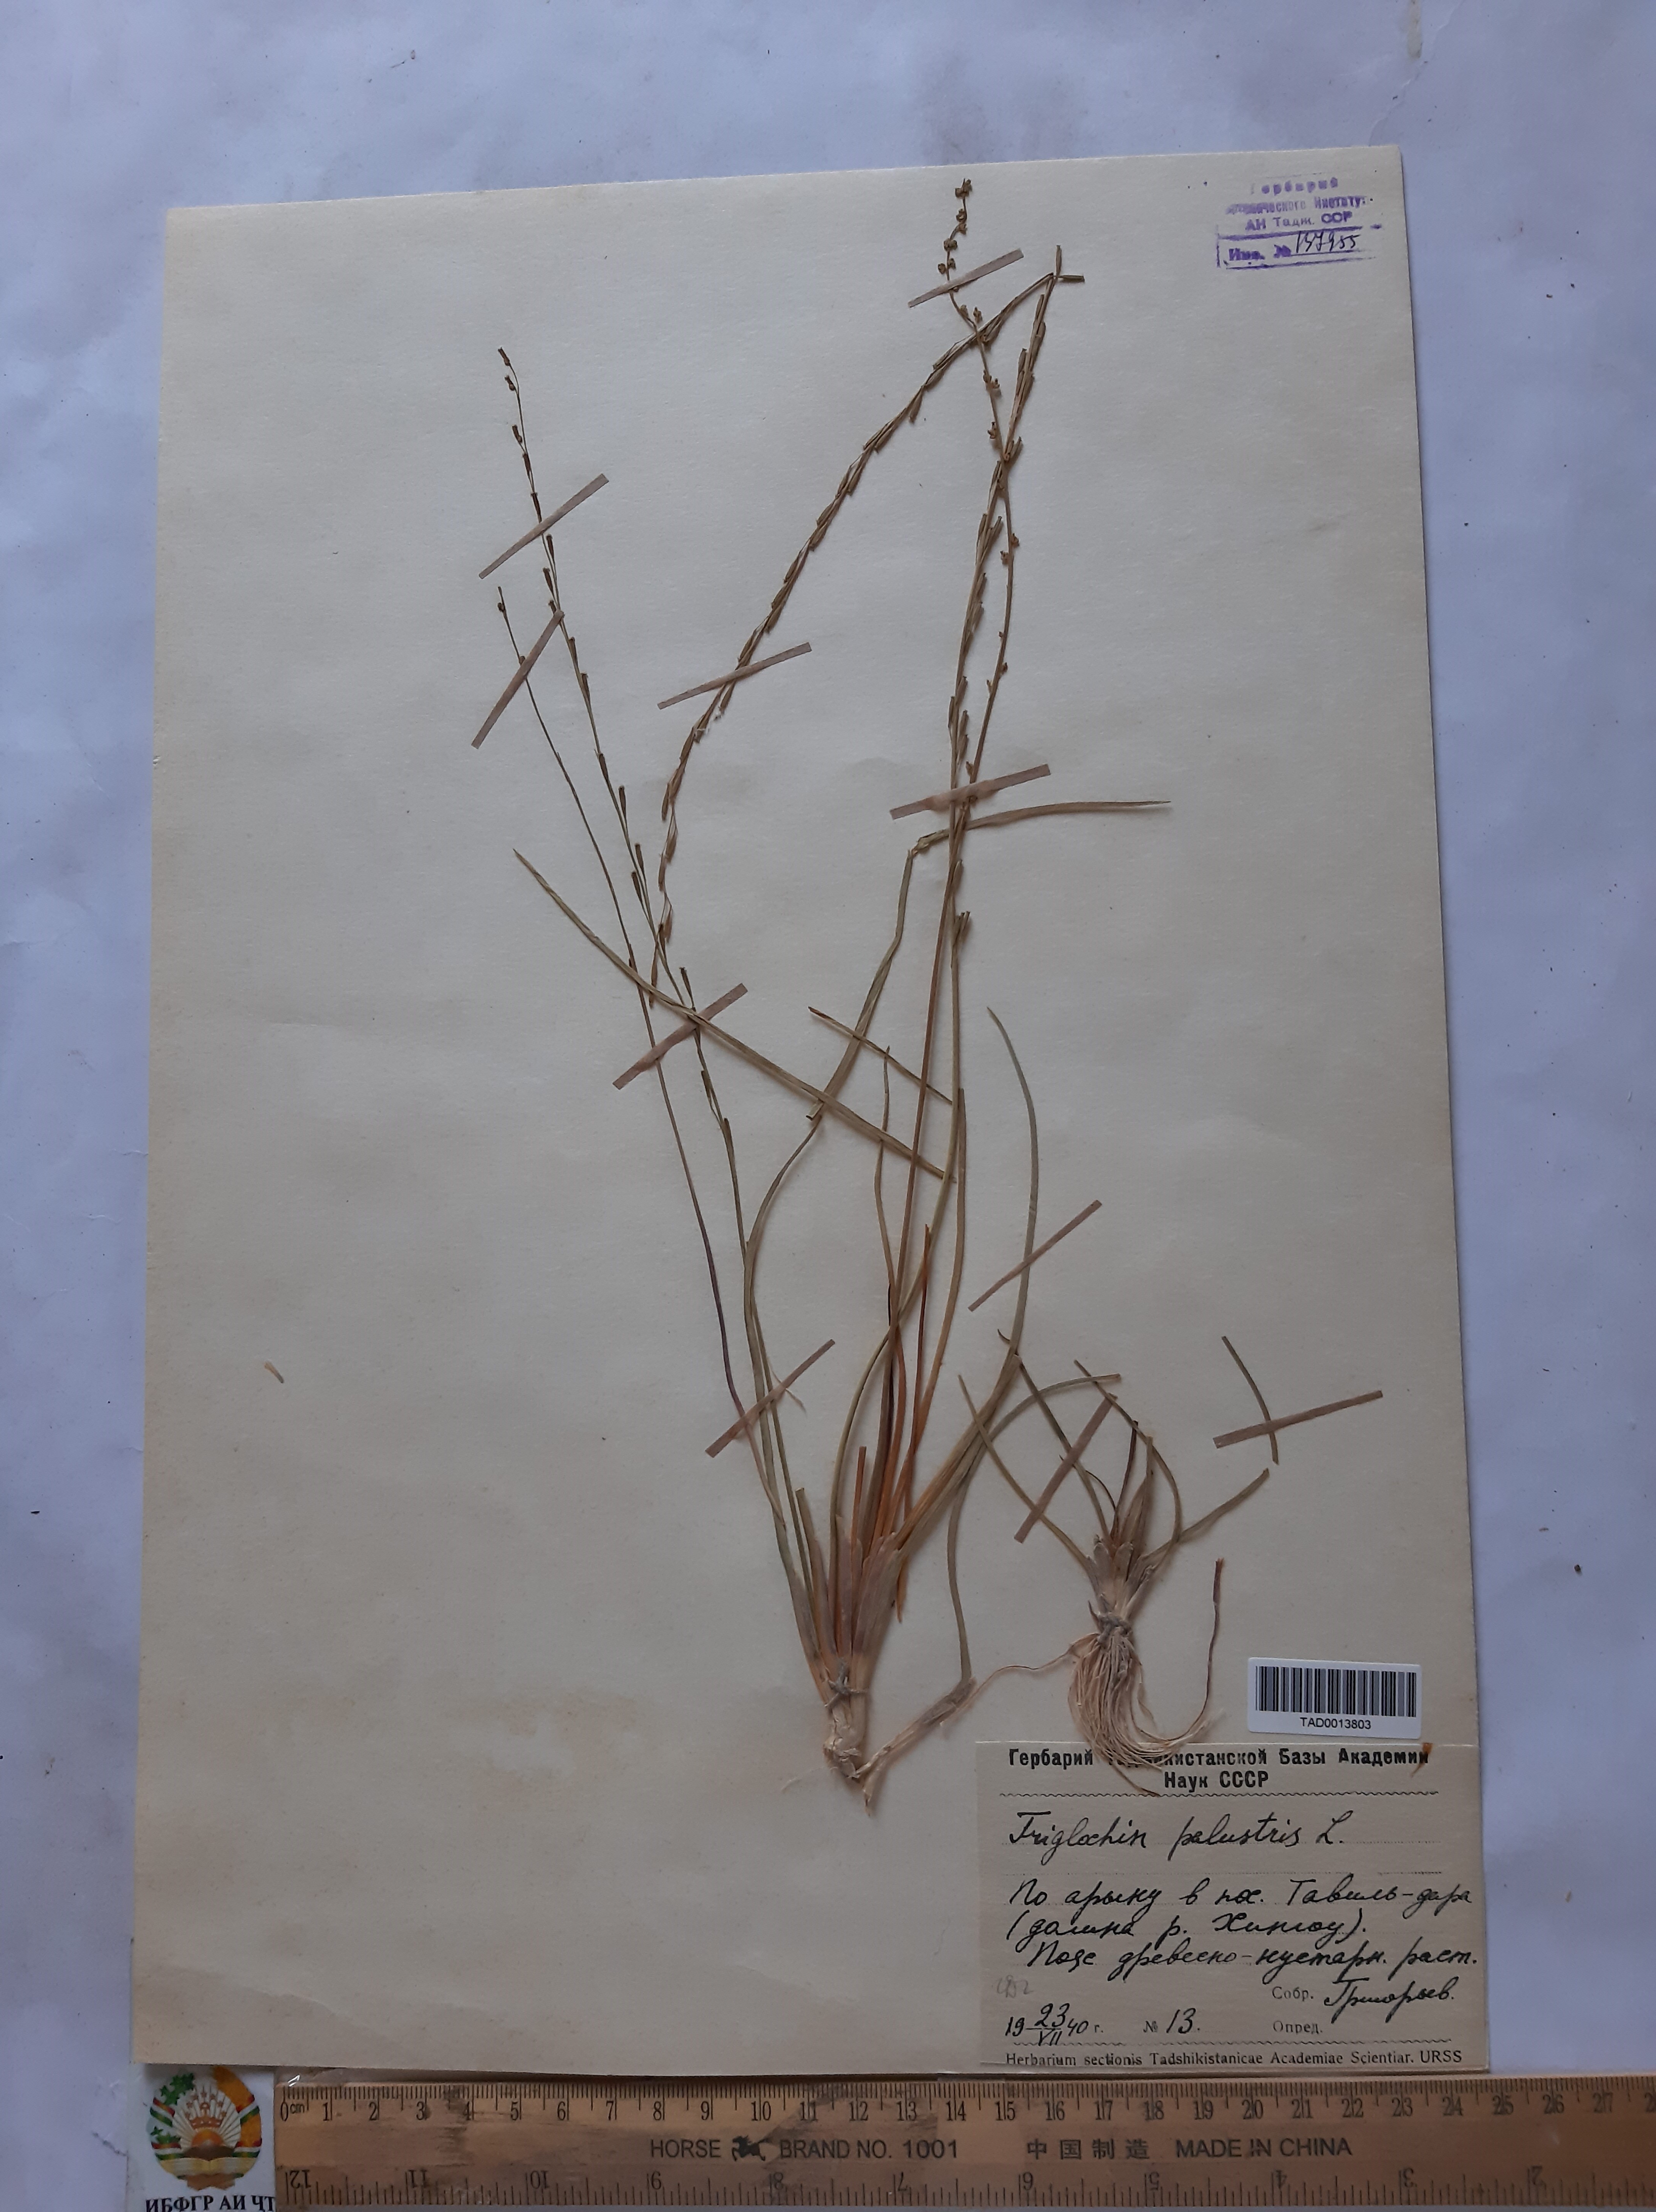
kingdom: Plantae
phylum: Tracheophyta
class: Liliopsida
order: Alismatales
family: Juncaginaceae
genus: Triglochin
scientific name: Triglochin palustris
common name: Marsh arrowgrass
